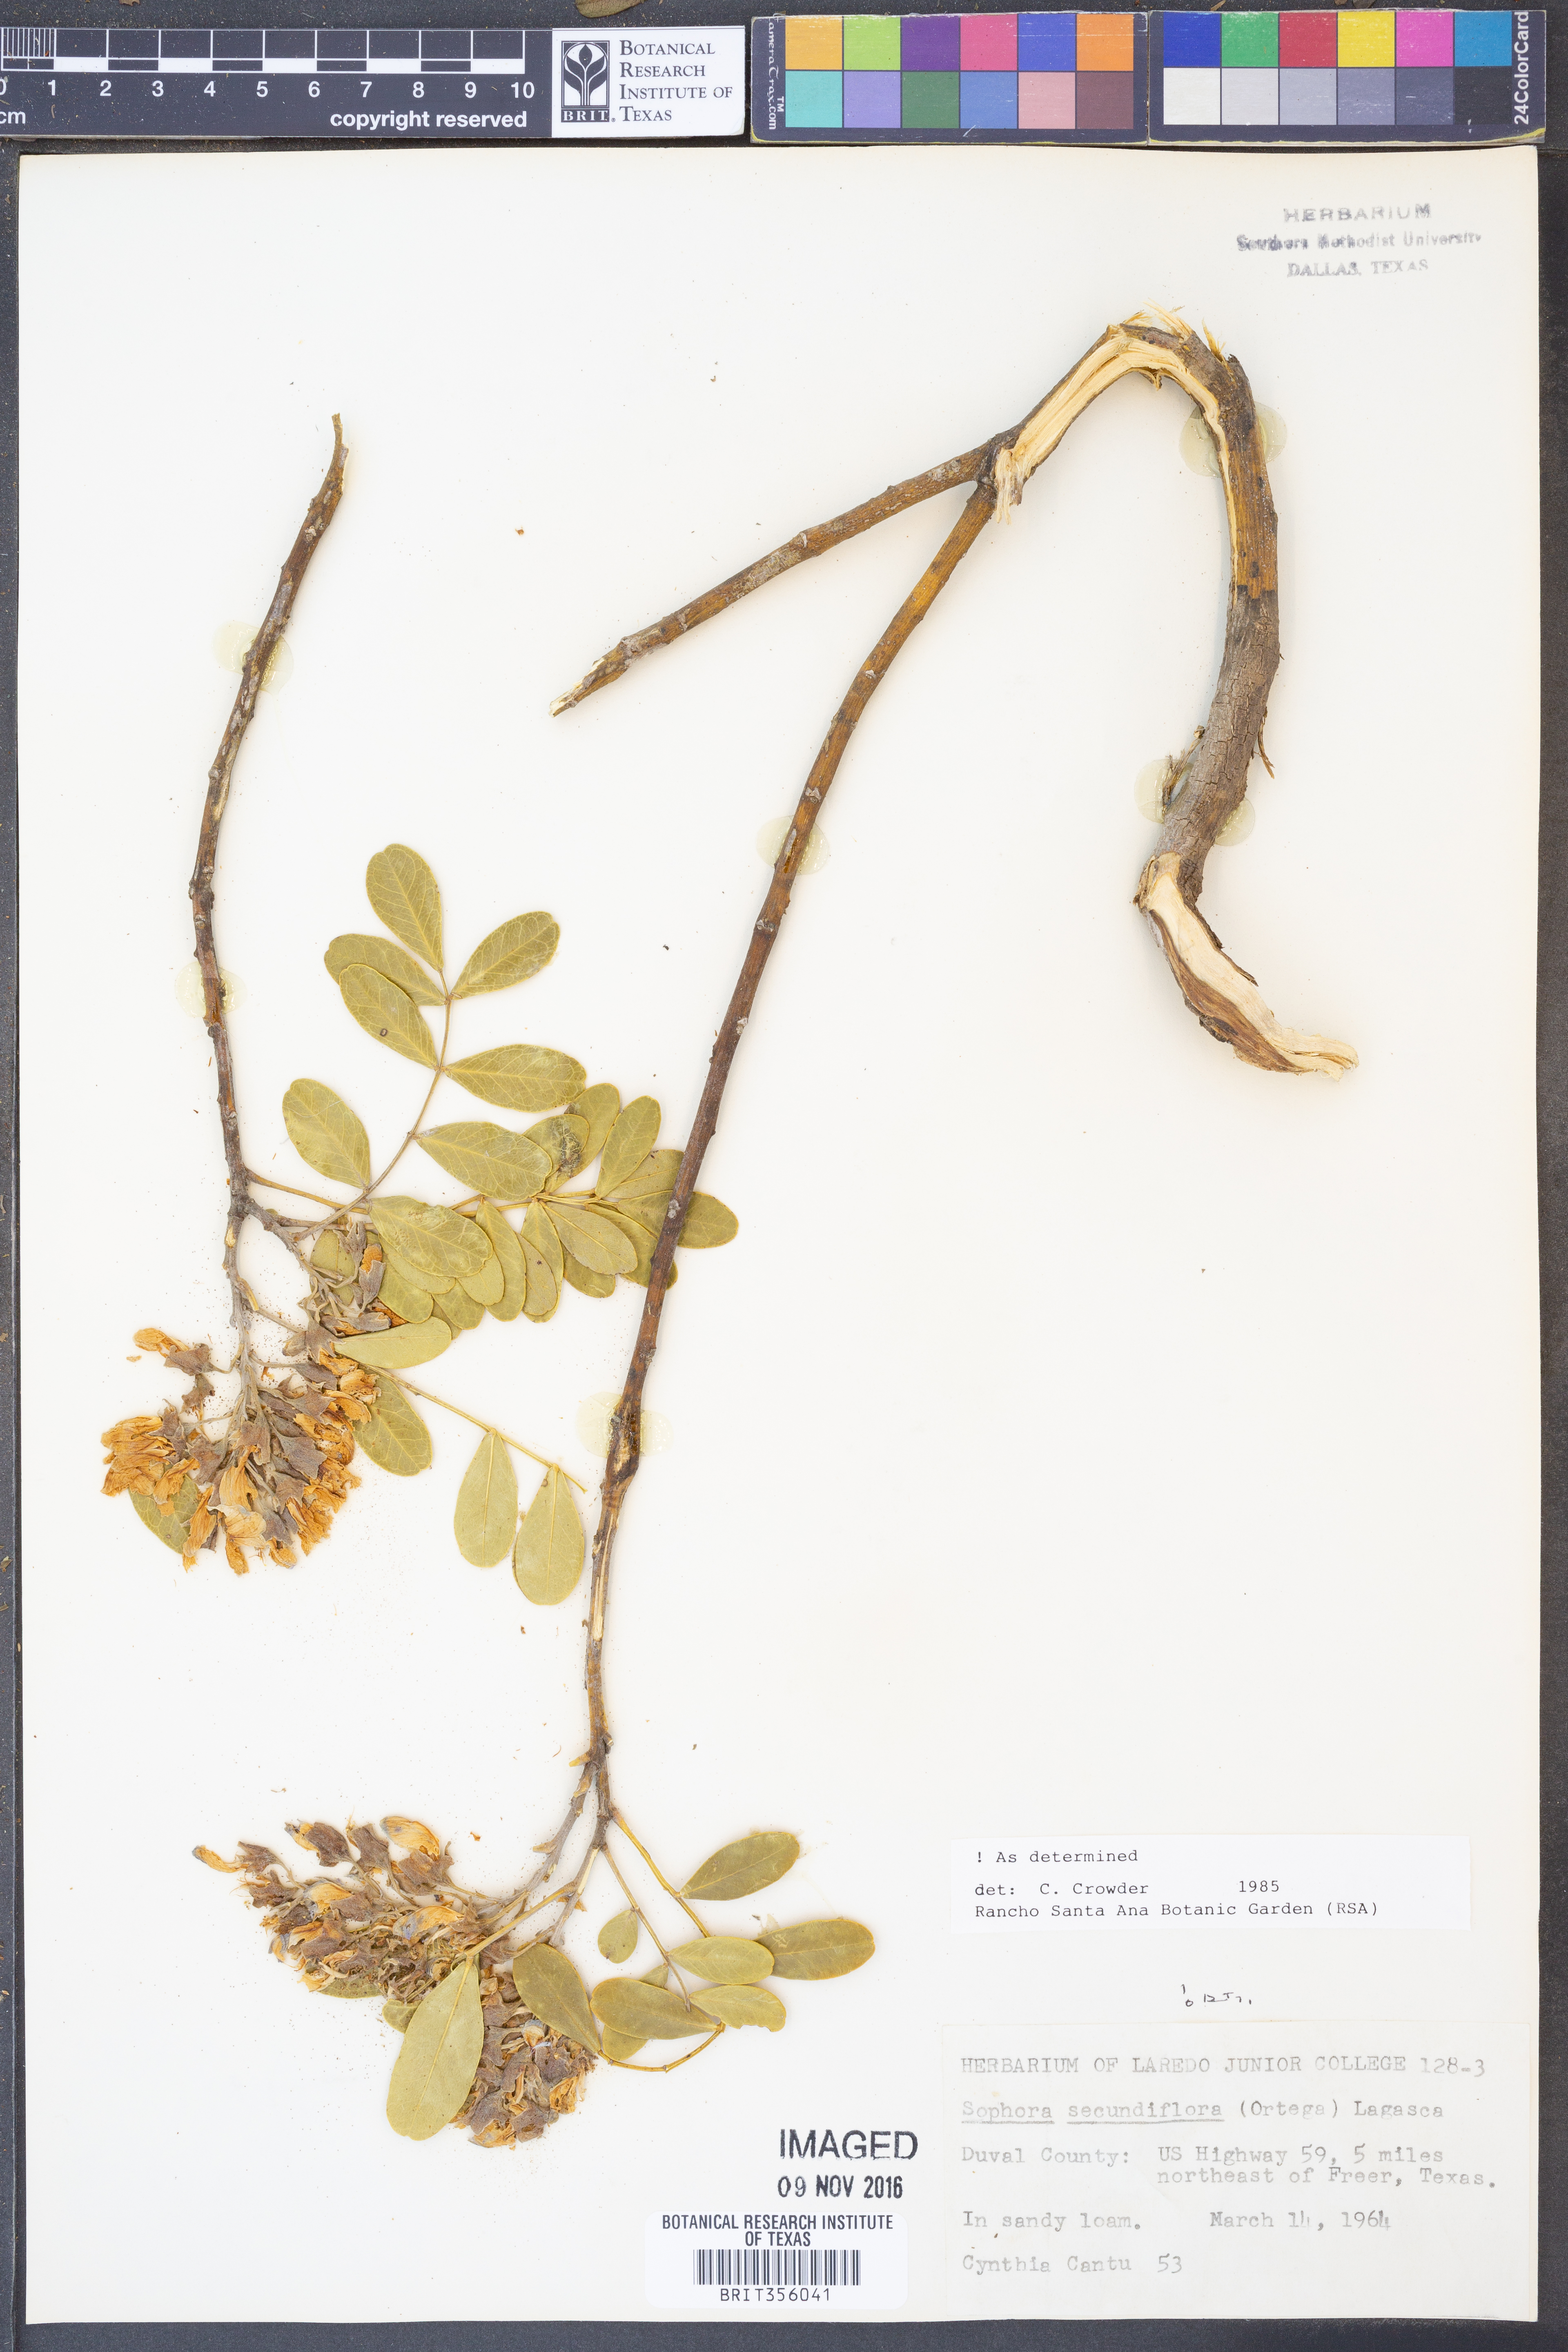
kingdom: Plantae
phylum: Tracheophyta
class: Magnoliopsida
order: Fabales
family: Fabaceae
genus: Dermatophyllum
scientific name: Dermatophyllum secundiflorum
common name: Texas-mountain-laurel
